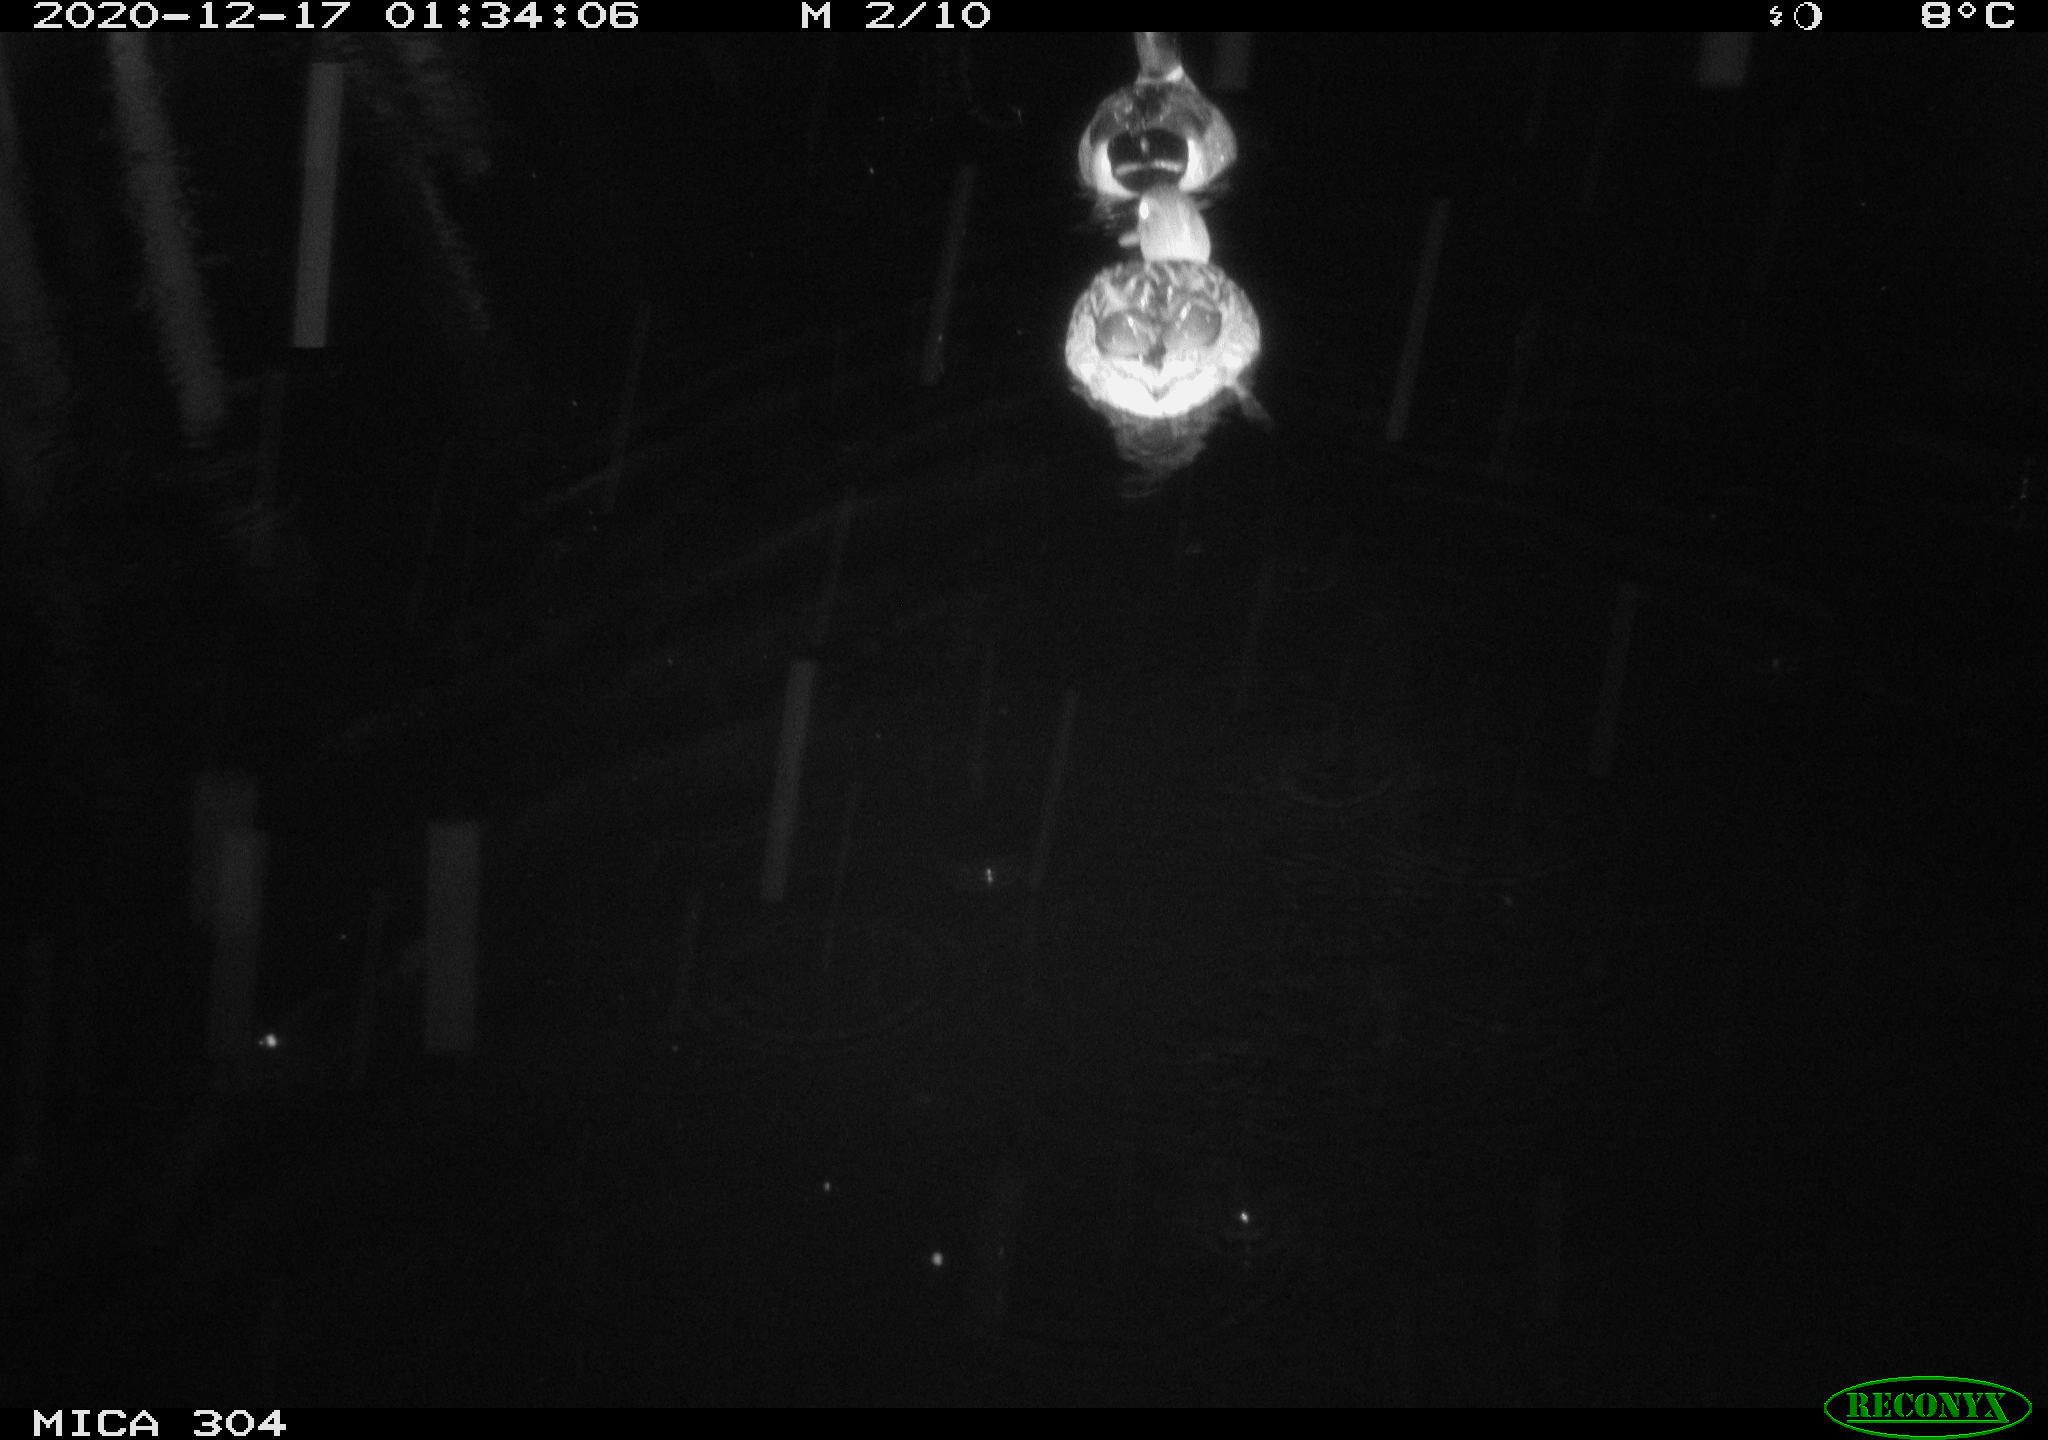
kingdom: Animalia
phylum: Chordata
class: Aves
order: Anseriformes
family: Anatidae
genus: Anas
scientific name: Anas platyrhynchos
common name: Mallard
